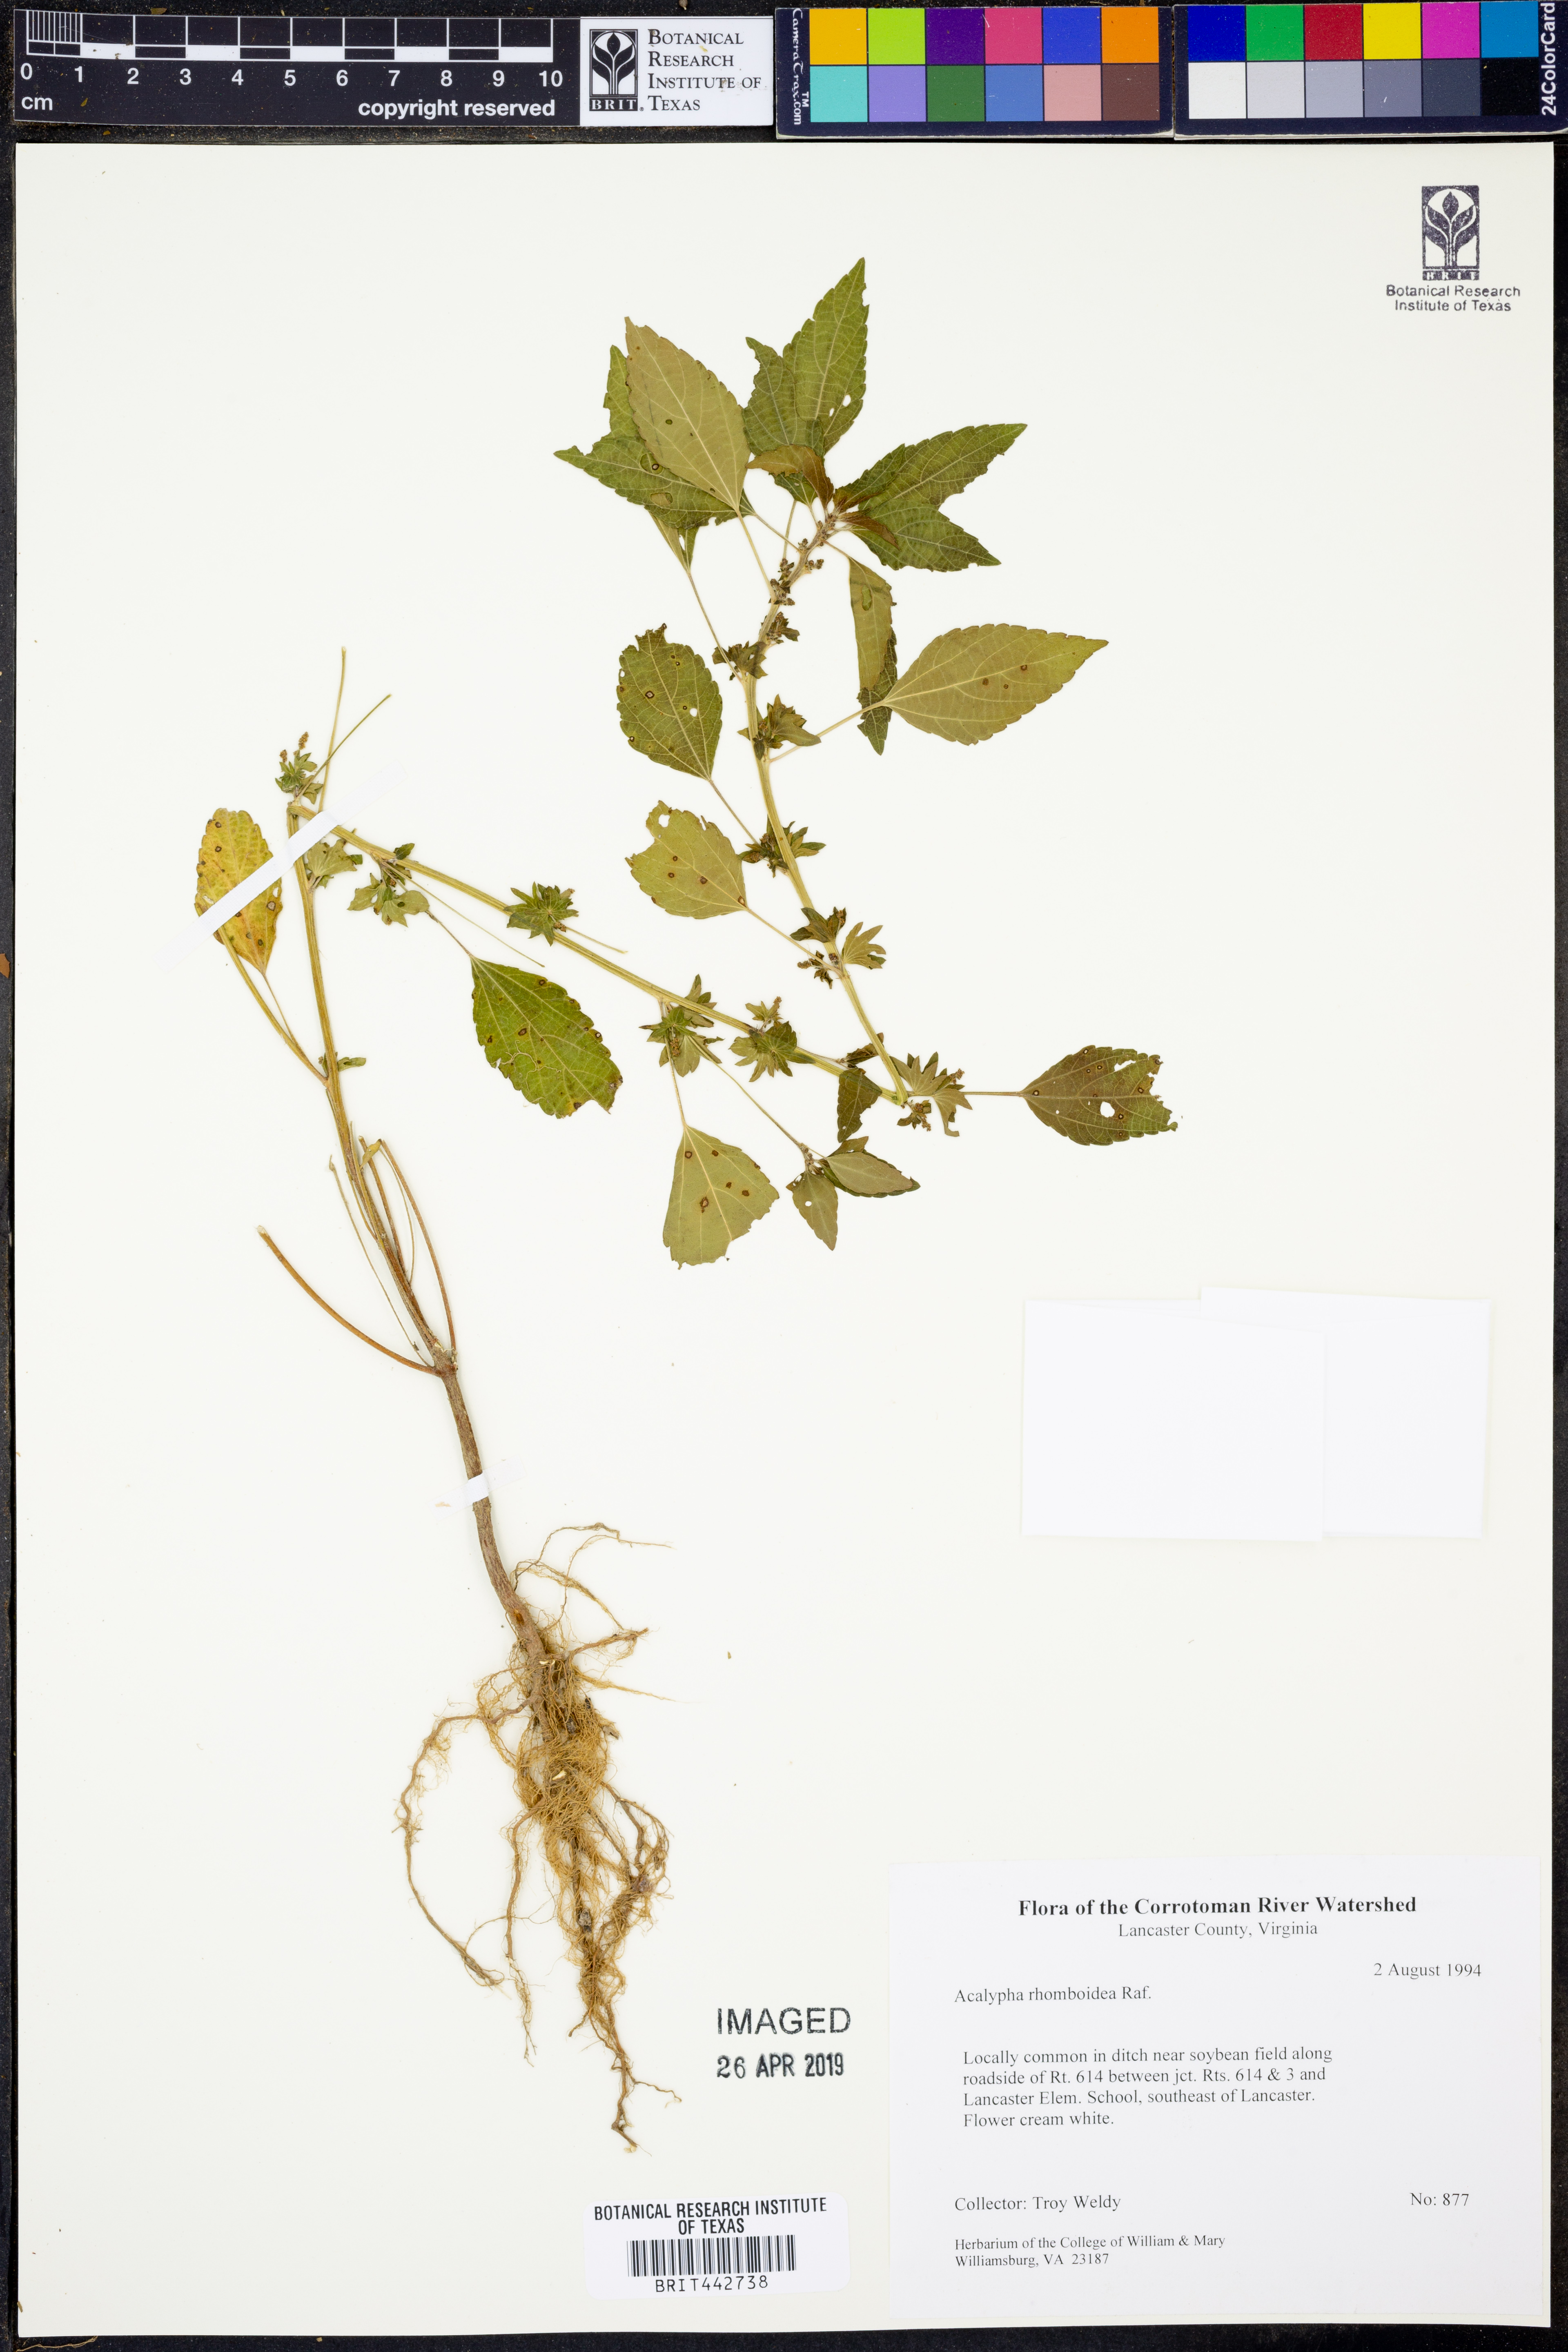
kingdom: Plantae
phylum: Tracheophyta
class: Magnoliopsida
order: Malpighiales
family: Euphorbiaceae
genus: Acalypha
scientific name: Acalypha rhomboidea
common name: Rhombic copperleaf
